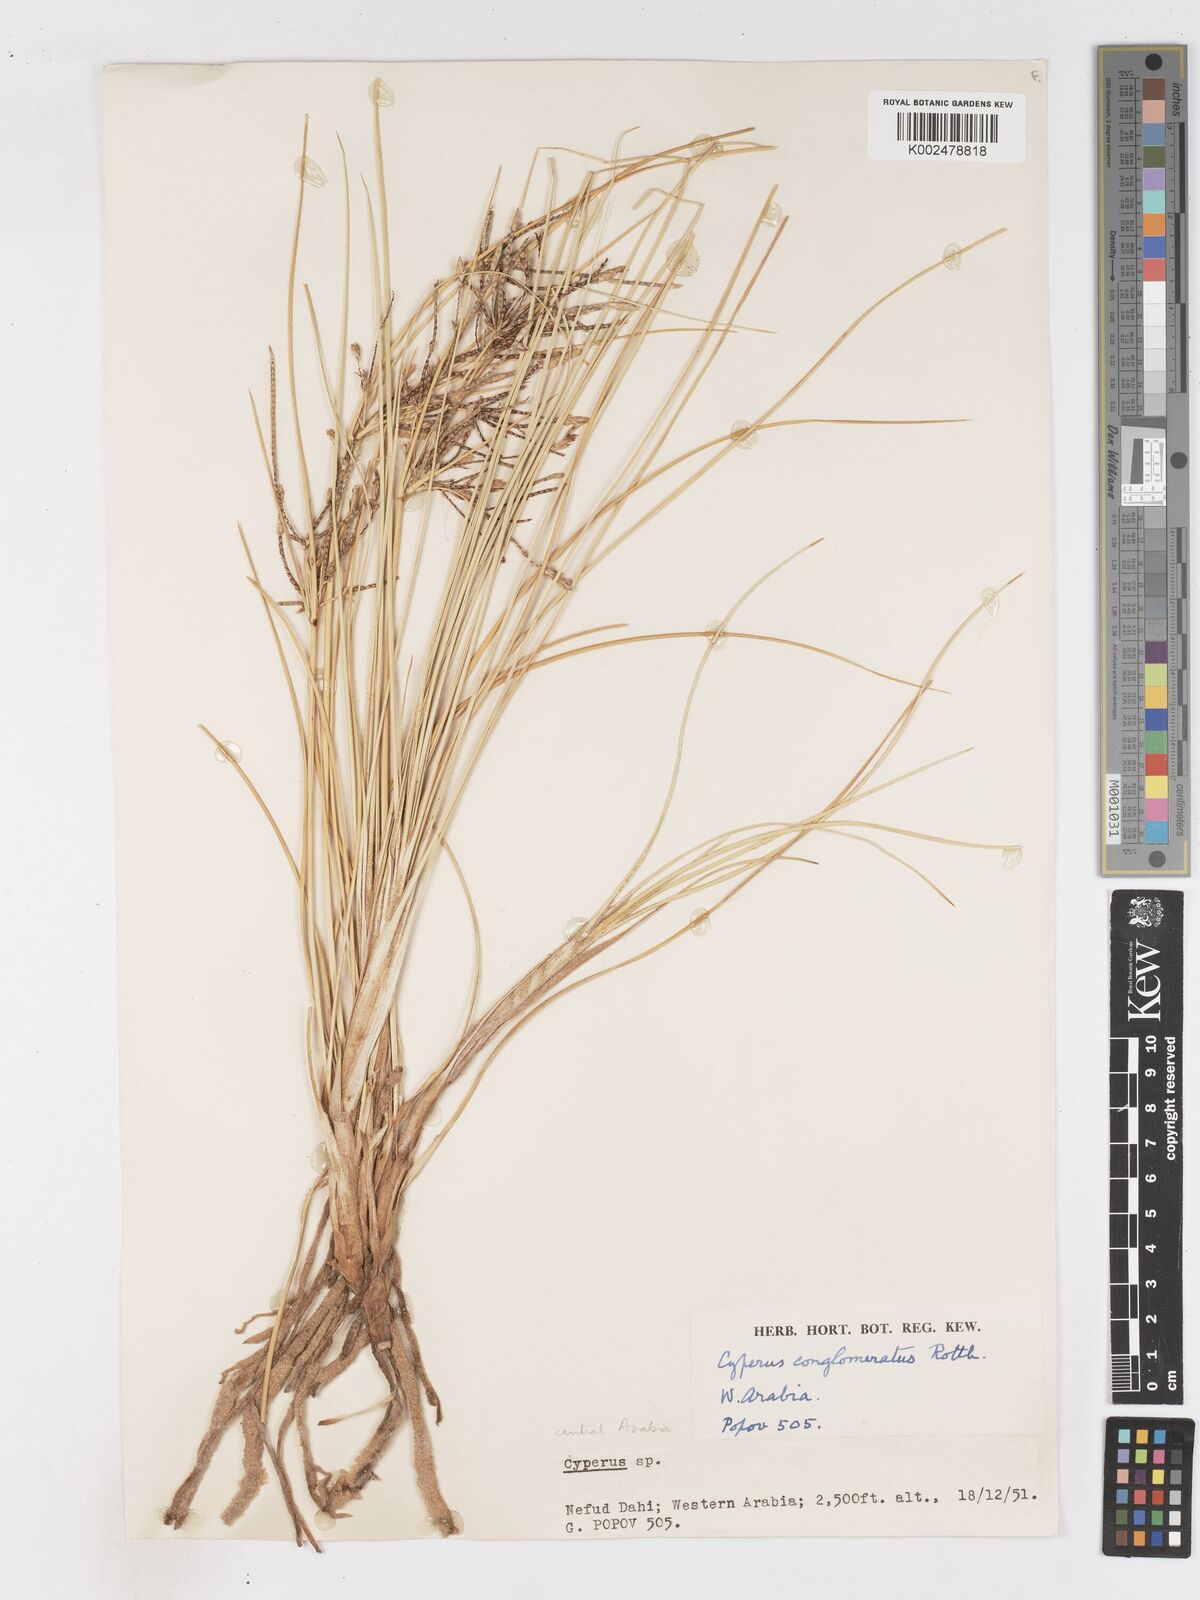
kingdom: Plantae
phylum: Tracheophyta
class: Liliopsida
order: Poales
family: Cyperaceae
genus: Cyperus
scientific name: Cyperus aucheri
